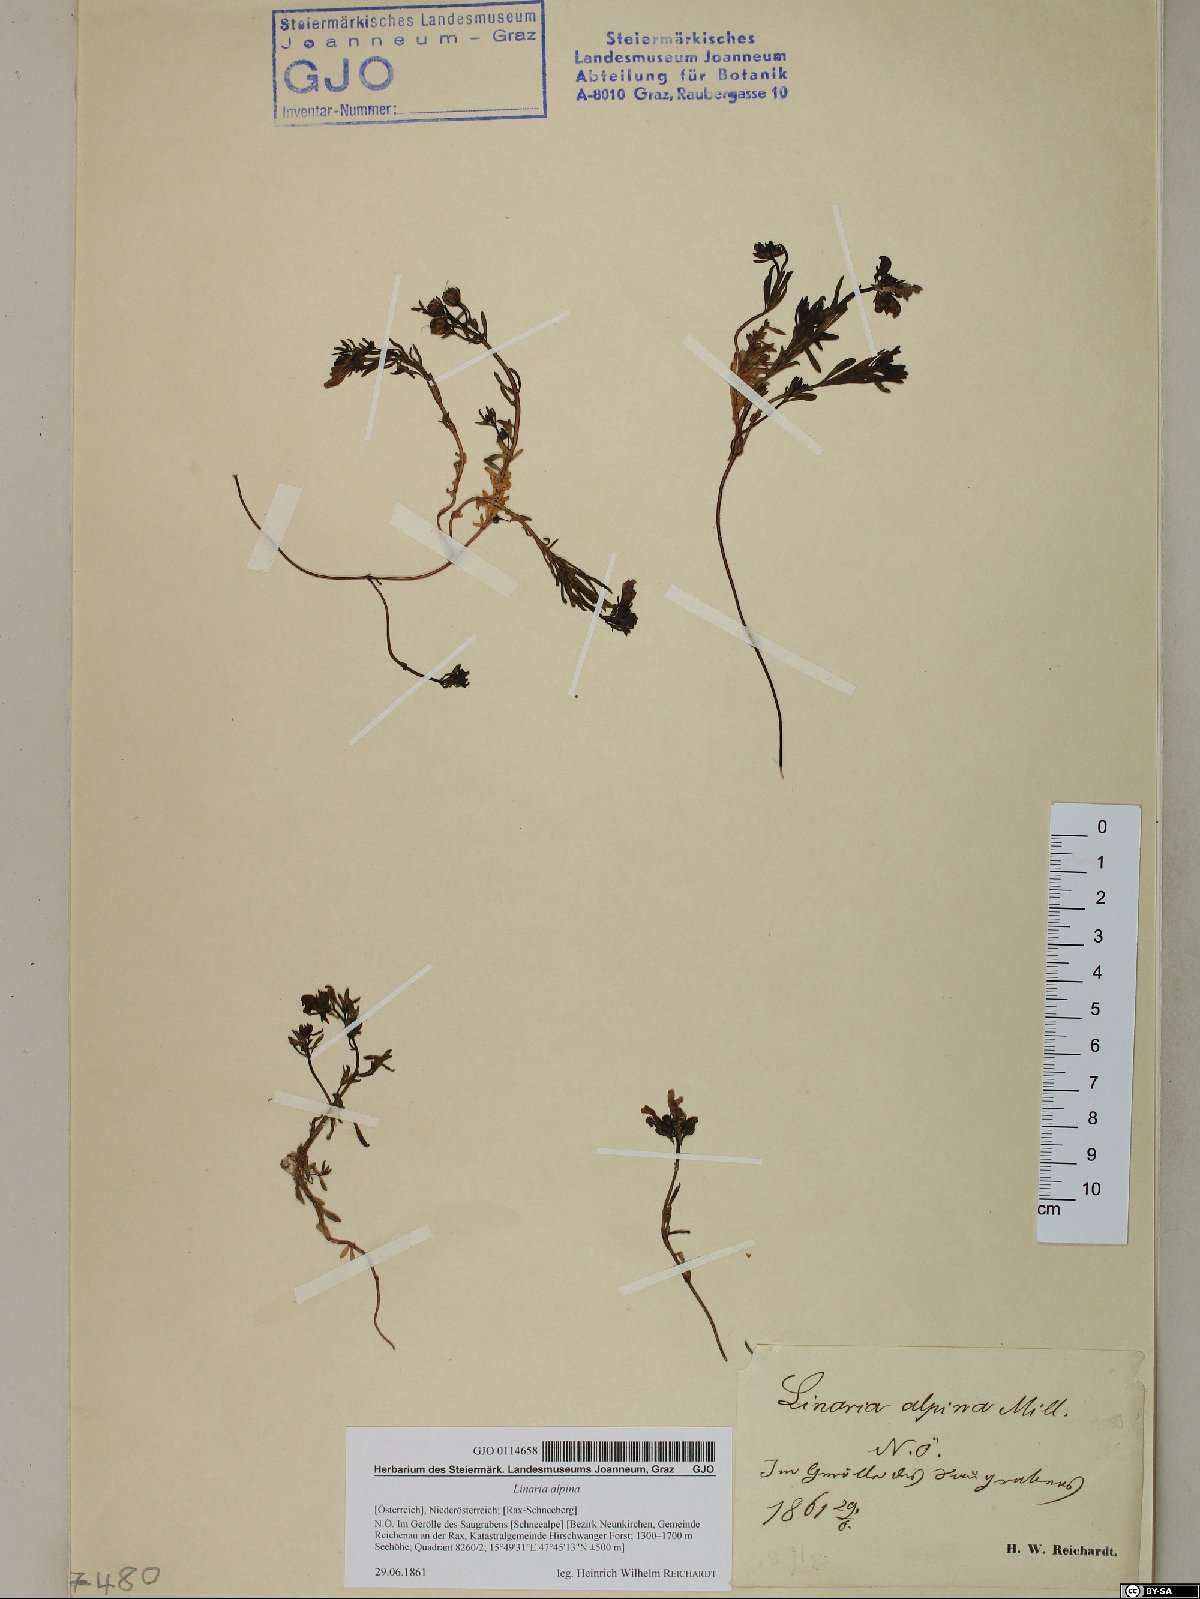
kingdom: Plantae
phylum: Tracheophyta
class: Magnoliopsida
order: Lamiales
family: Plantaginaceae
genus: Linaria
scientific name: Linaria alpina
